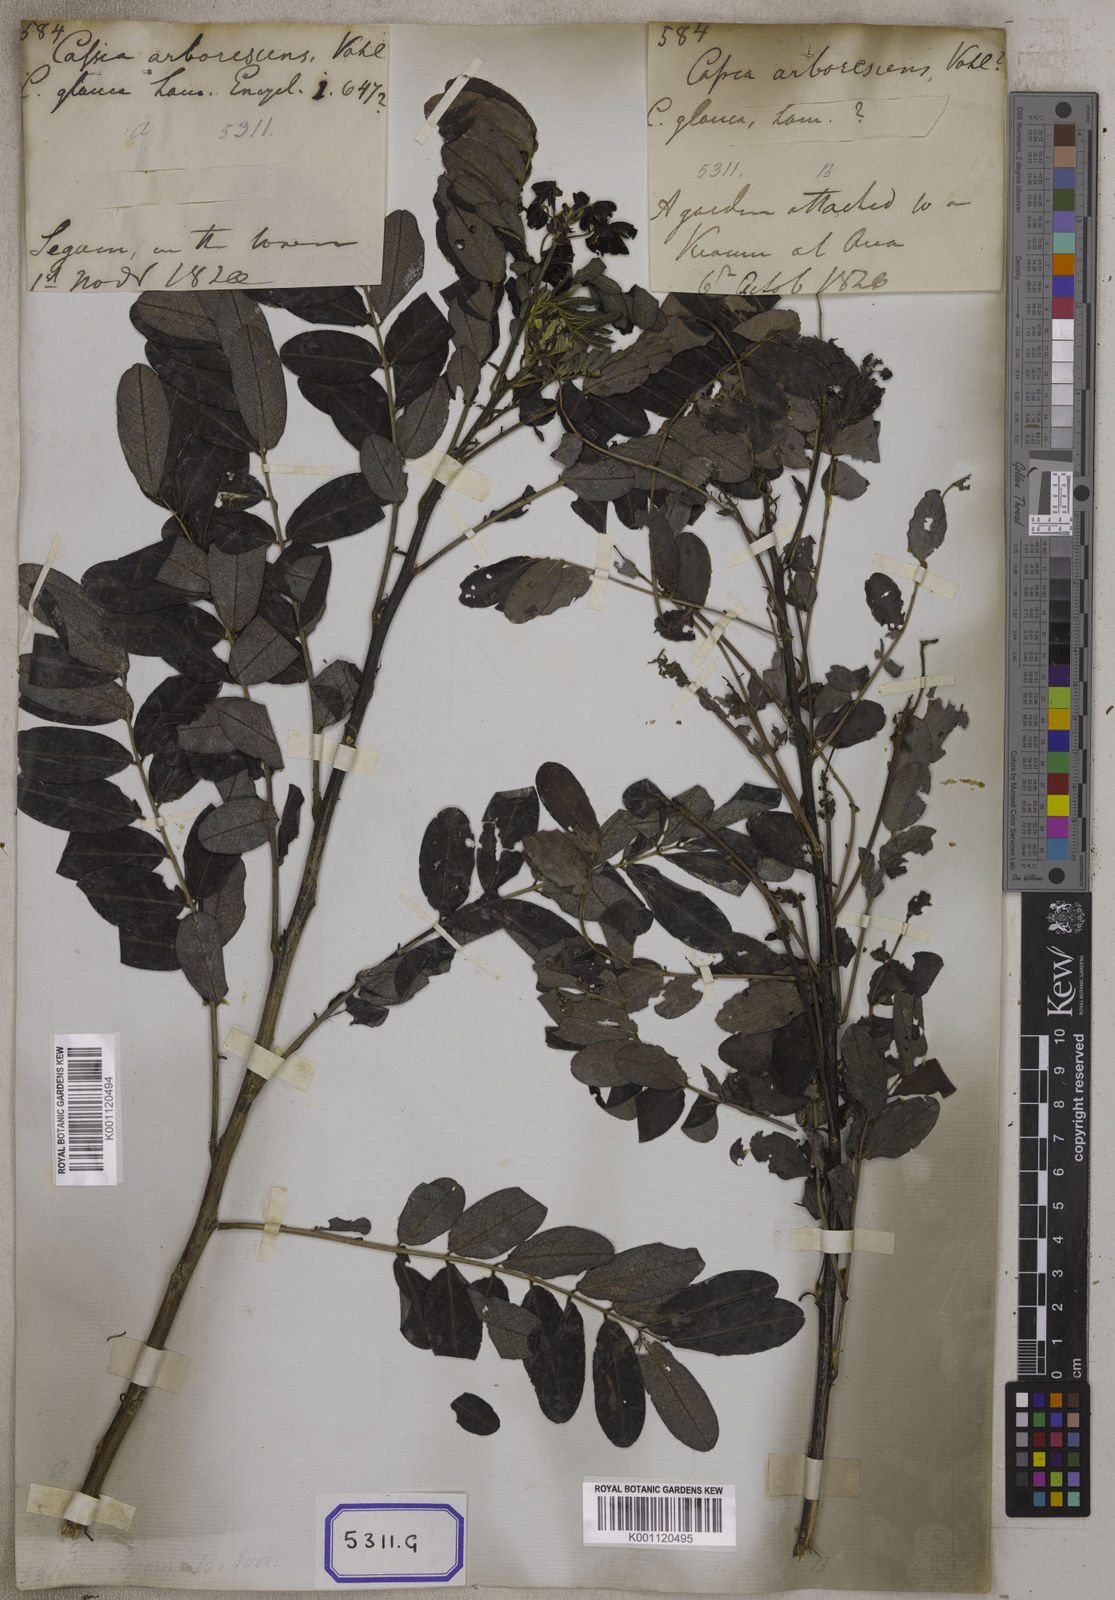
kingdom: Plantae
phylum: Tracheophyta
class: Magnoliopsida
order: Fabales
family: Fabaceae
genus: Senna
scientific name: Senna surattensis
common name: Glossy shower
